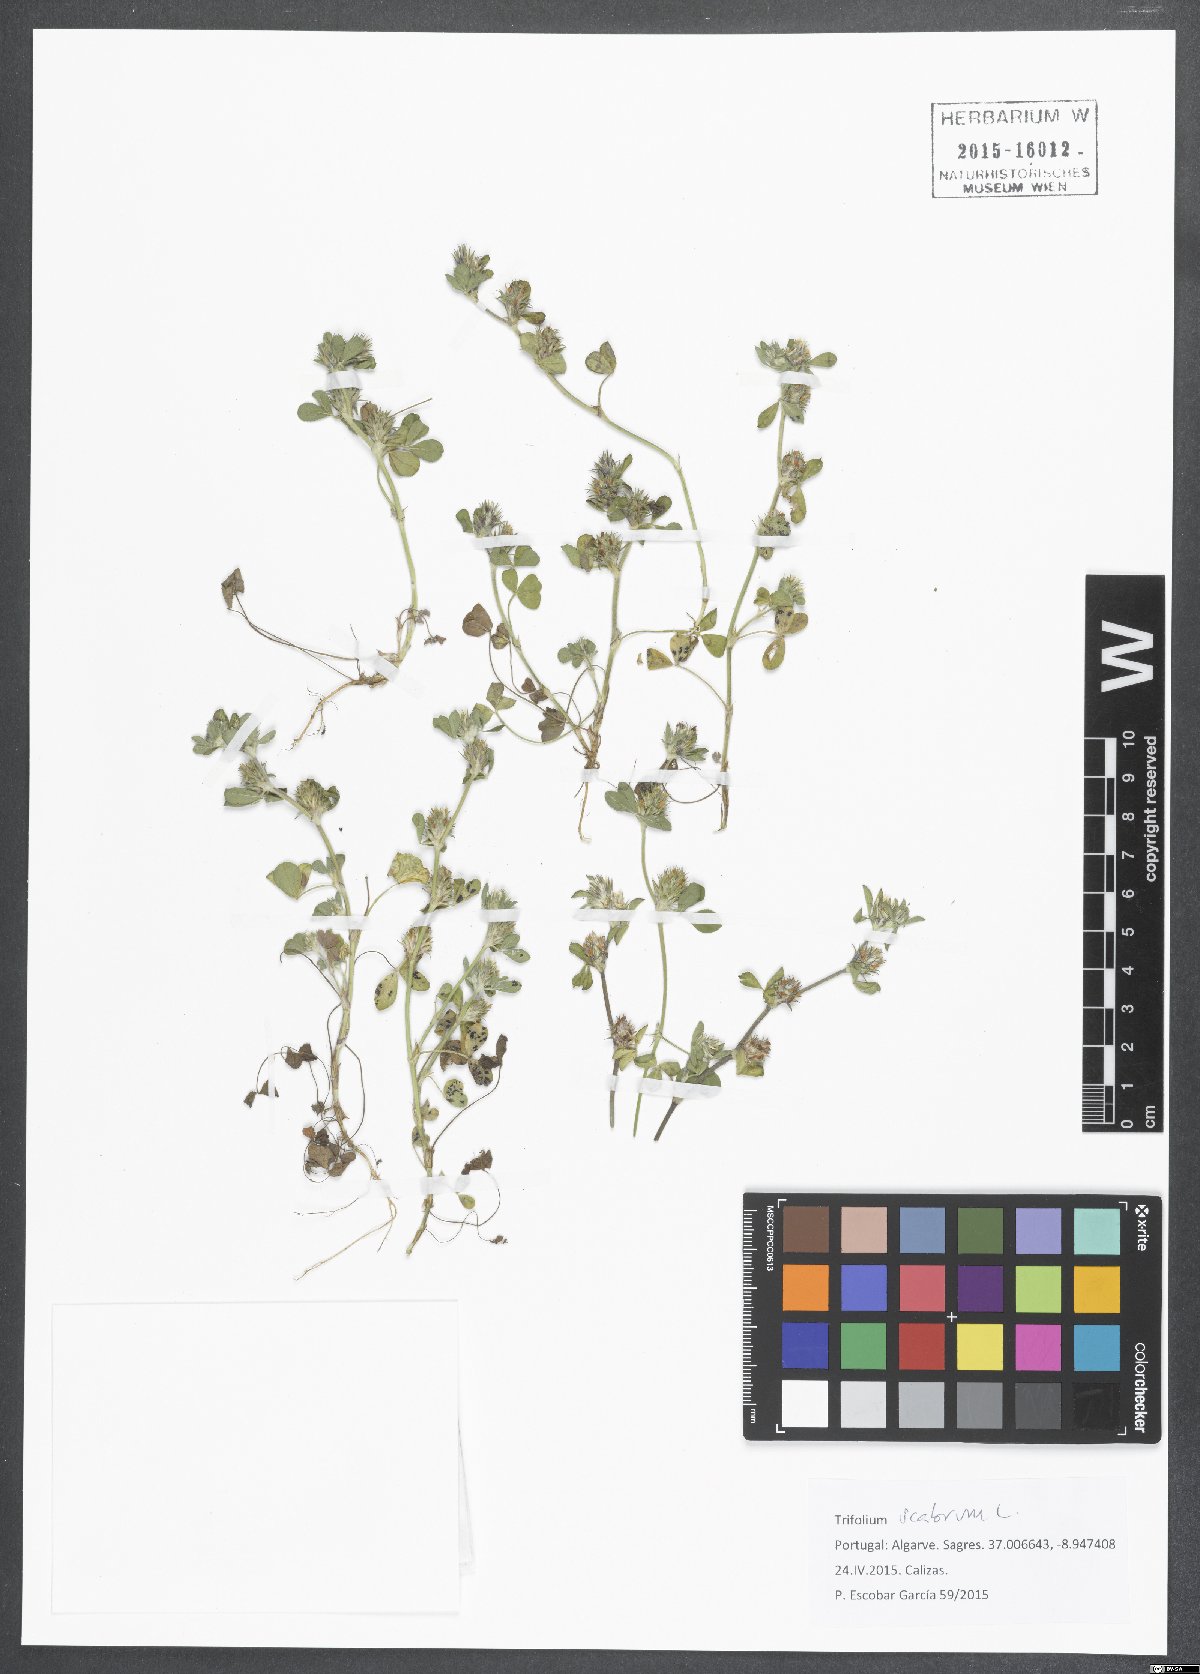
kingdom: Plantae
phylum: Tracheophyta
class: Magnoliopsida
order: Fabales
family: Fabaceae
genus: Trifolium
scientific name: Trifolium scabrum
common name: Rough clover
